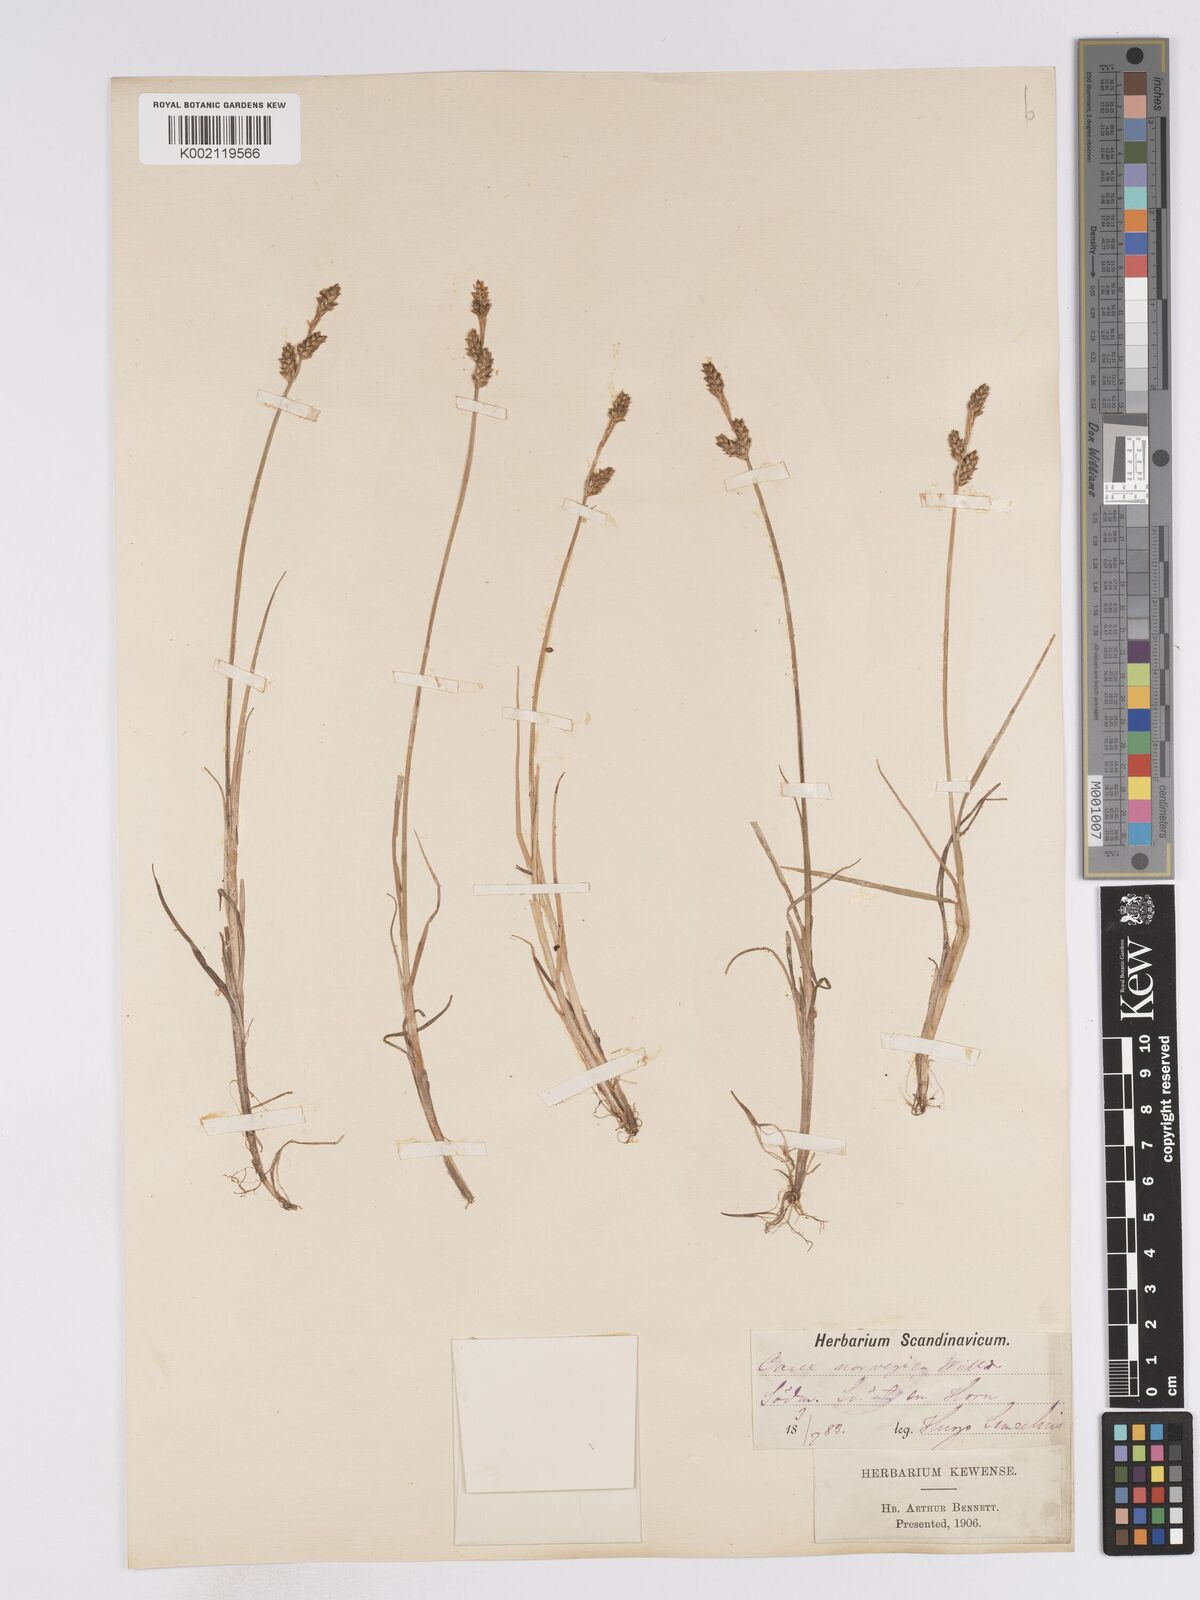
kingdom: Plantae
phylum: Tracheophyta
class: Liliopsida
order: Poales
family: Cyperaceae
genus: Carex
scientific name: Carex mackenziei
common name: Mackenzie's sedge
